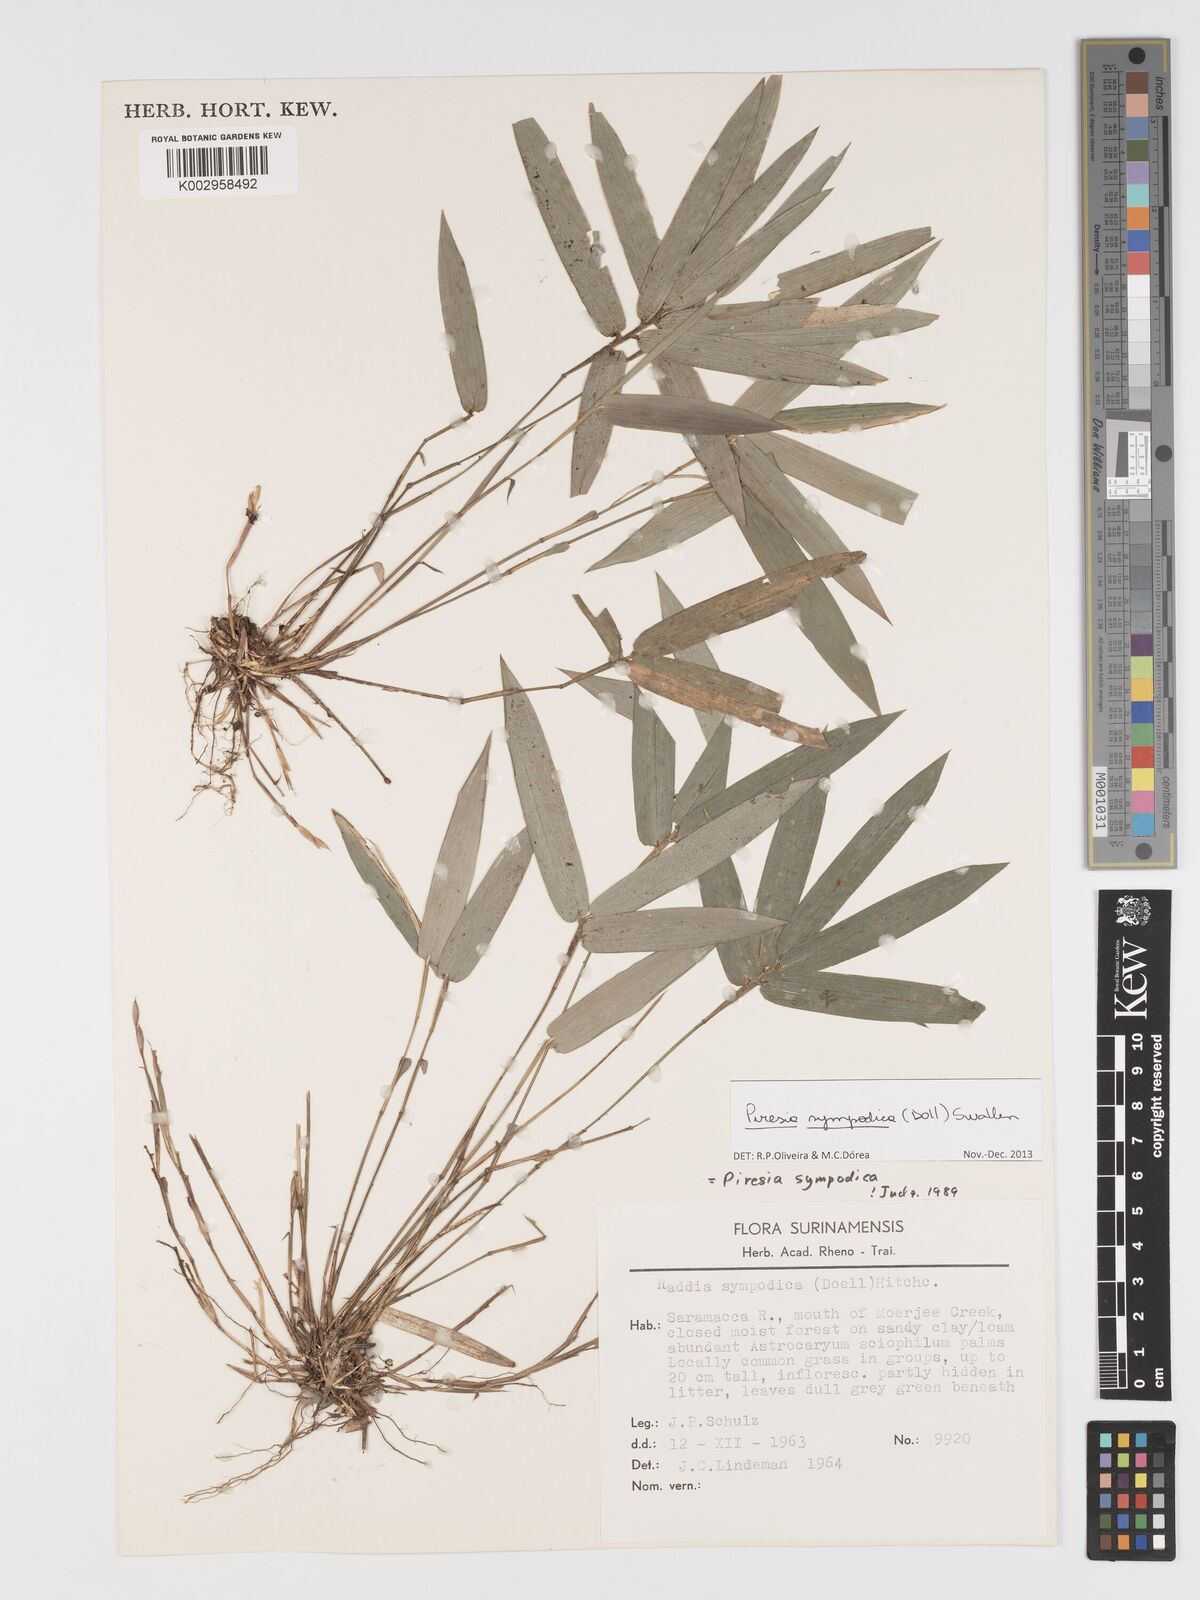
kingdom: Plantae
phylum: Tracheophyta
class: Liliopsida
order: Poales
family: Poaceae
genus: Piresia
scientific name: Piresia sympodica
